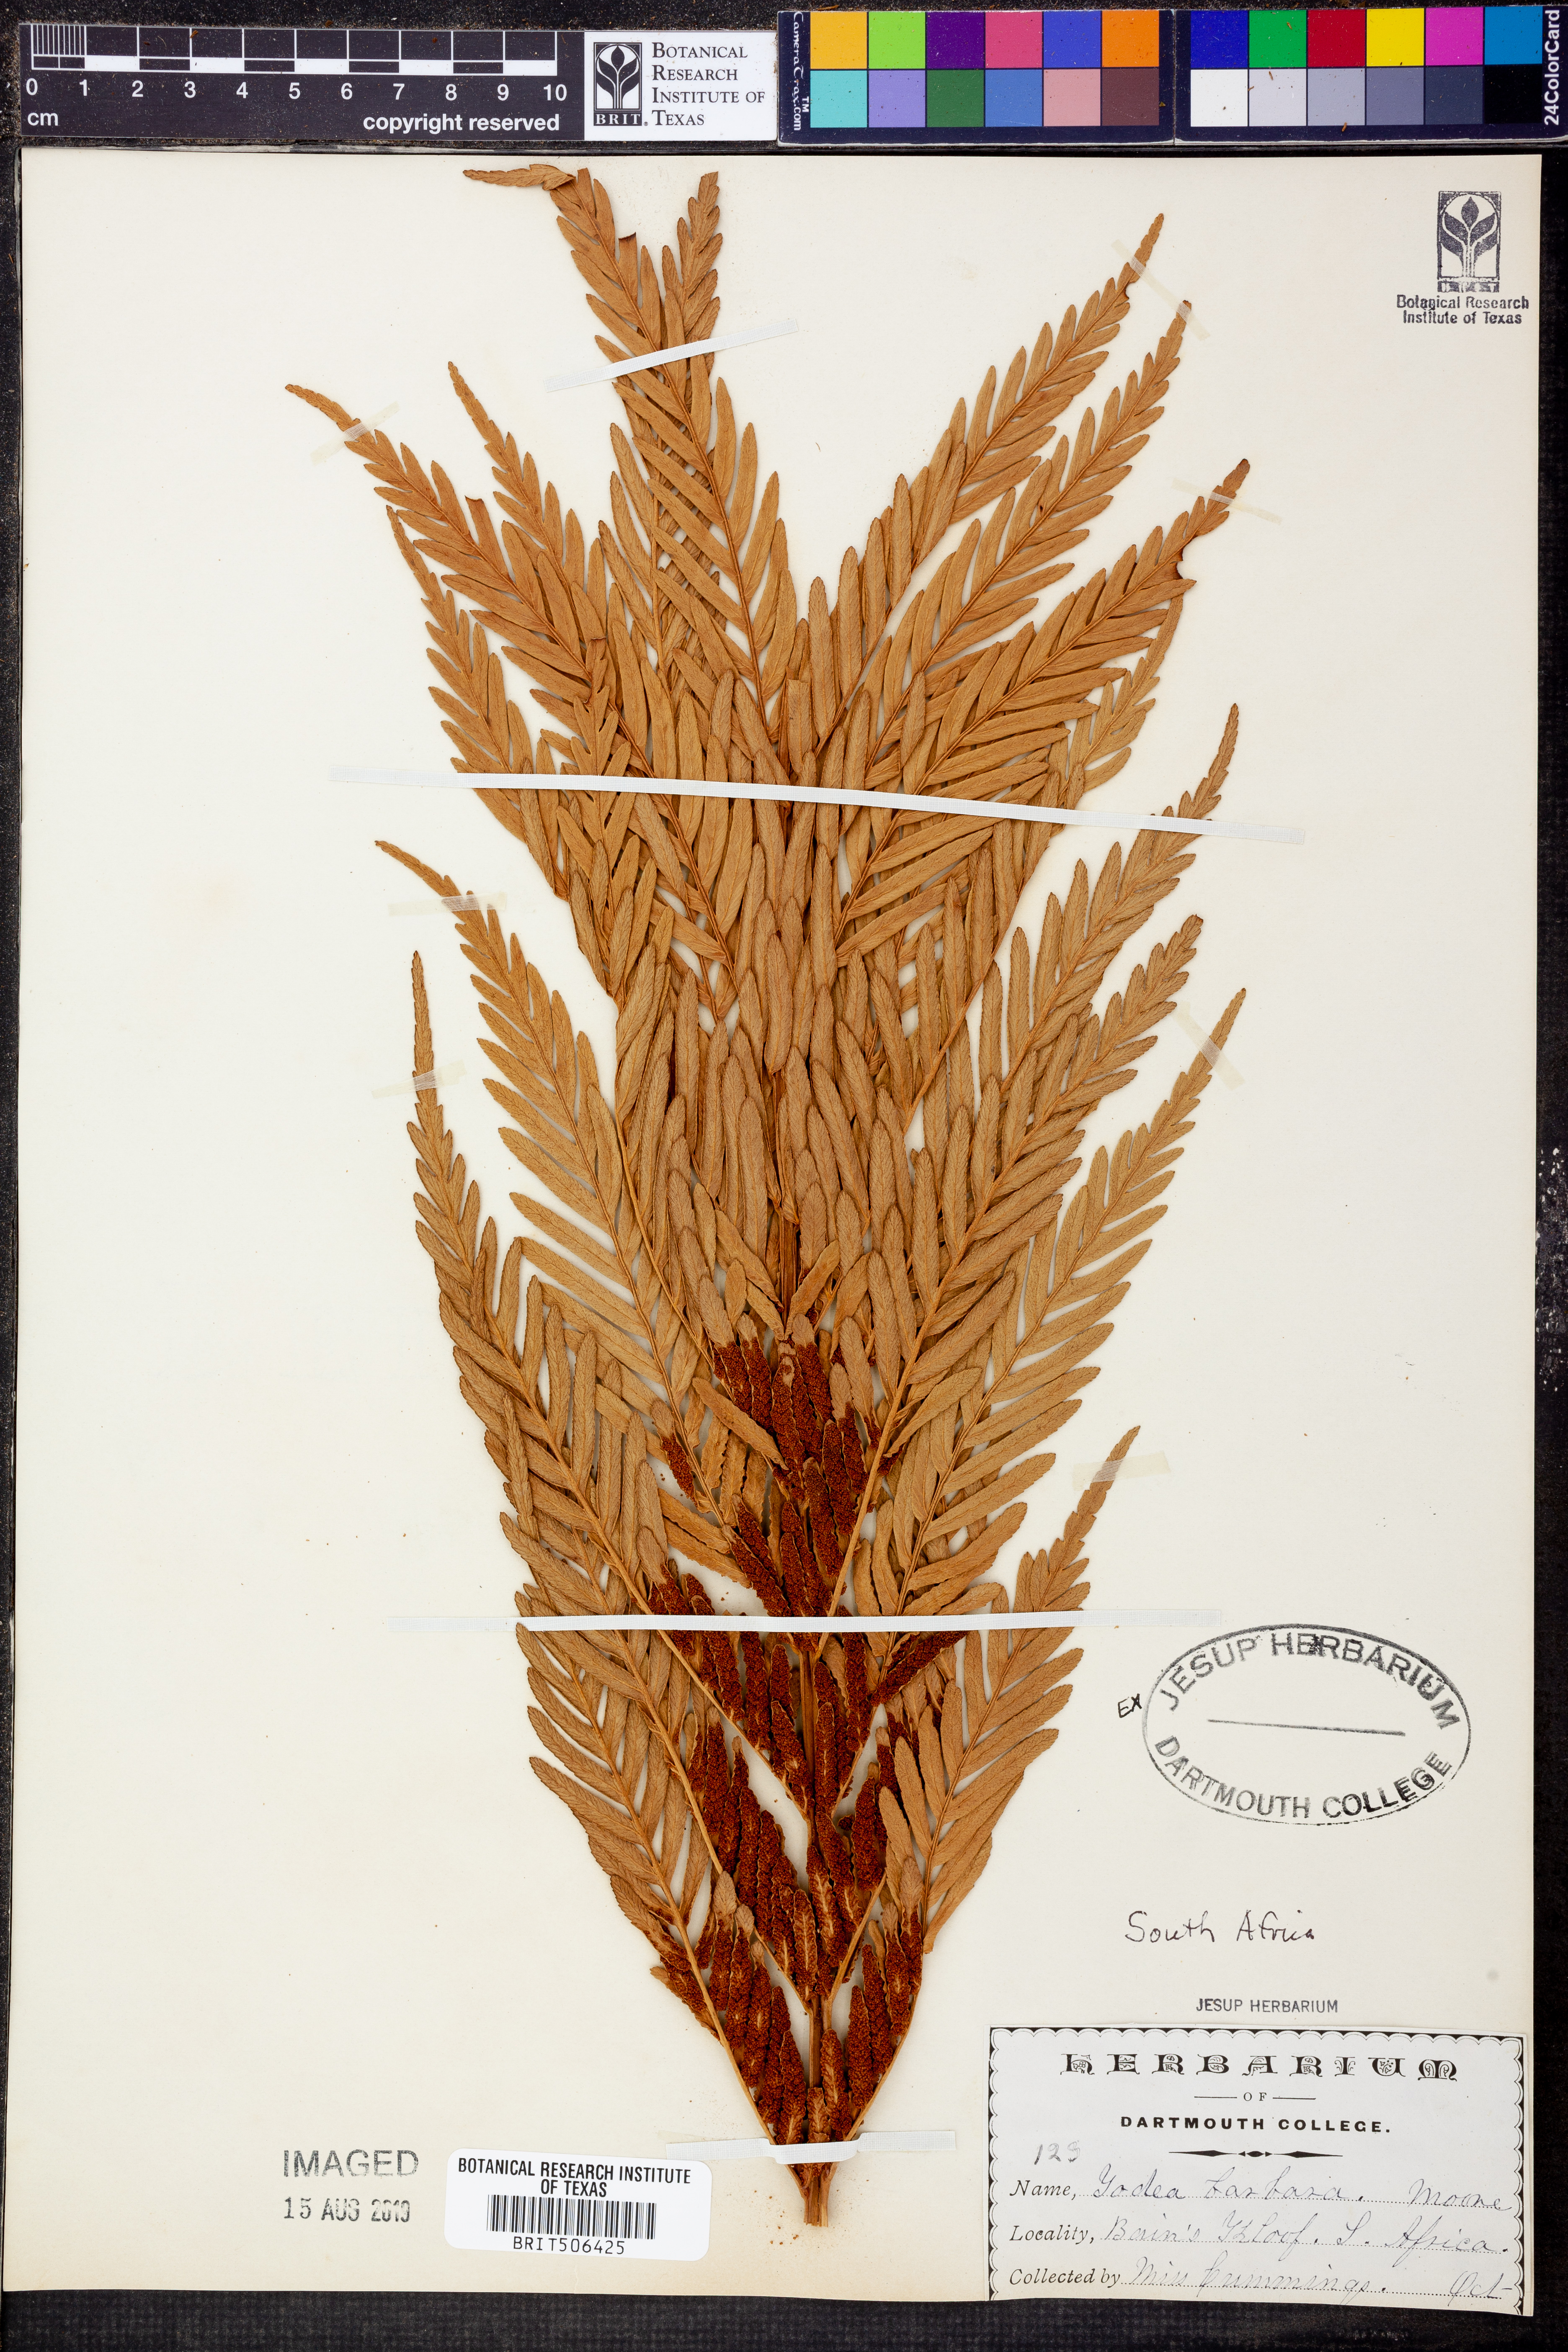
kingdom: Plantae
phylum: Tracheophyta
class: Polypodiopsida
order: Osmundales
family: Osmundaceae
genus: Todea
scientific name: Todea barbara
